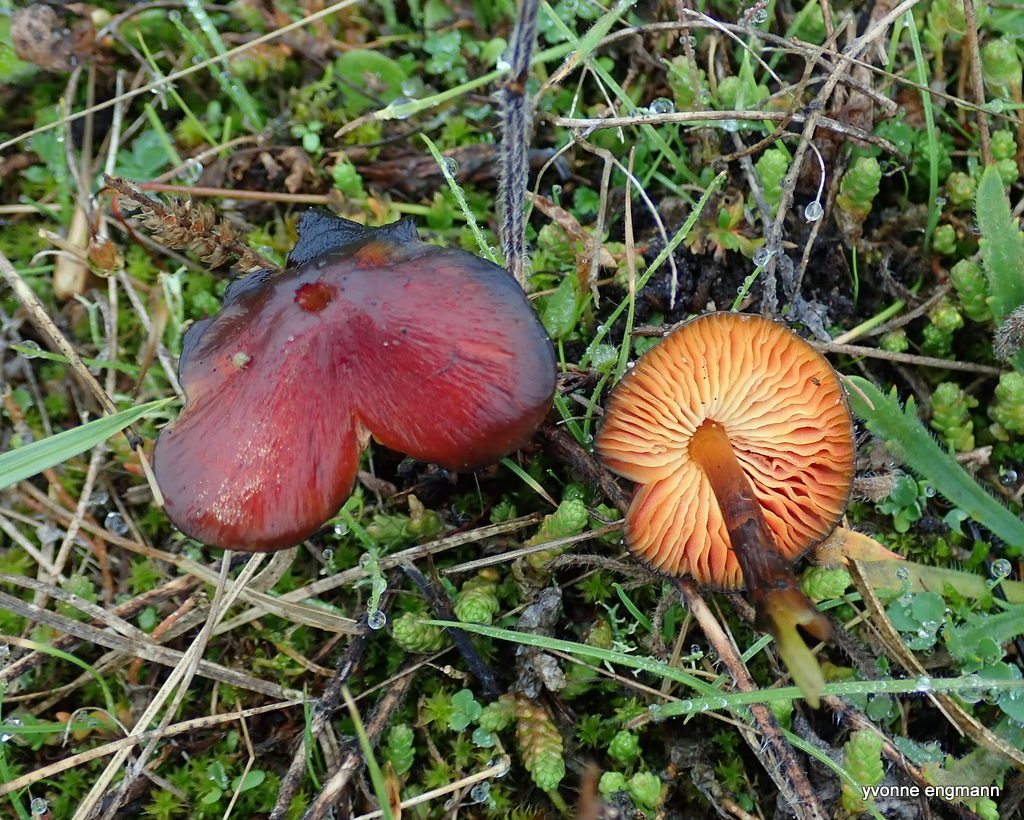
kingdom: Fungi
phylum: Basidiomycota
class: Agaricomycetes
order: Agaricales
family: Hygrophoraceae
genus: Hygrocybe
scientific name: Hygrocybe conica
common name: kegle-vokshat
